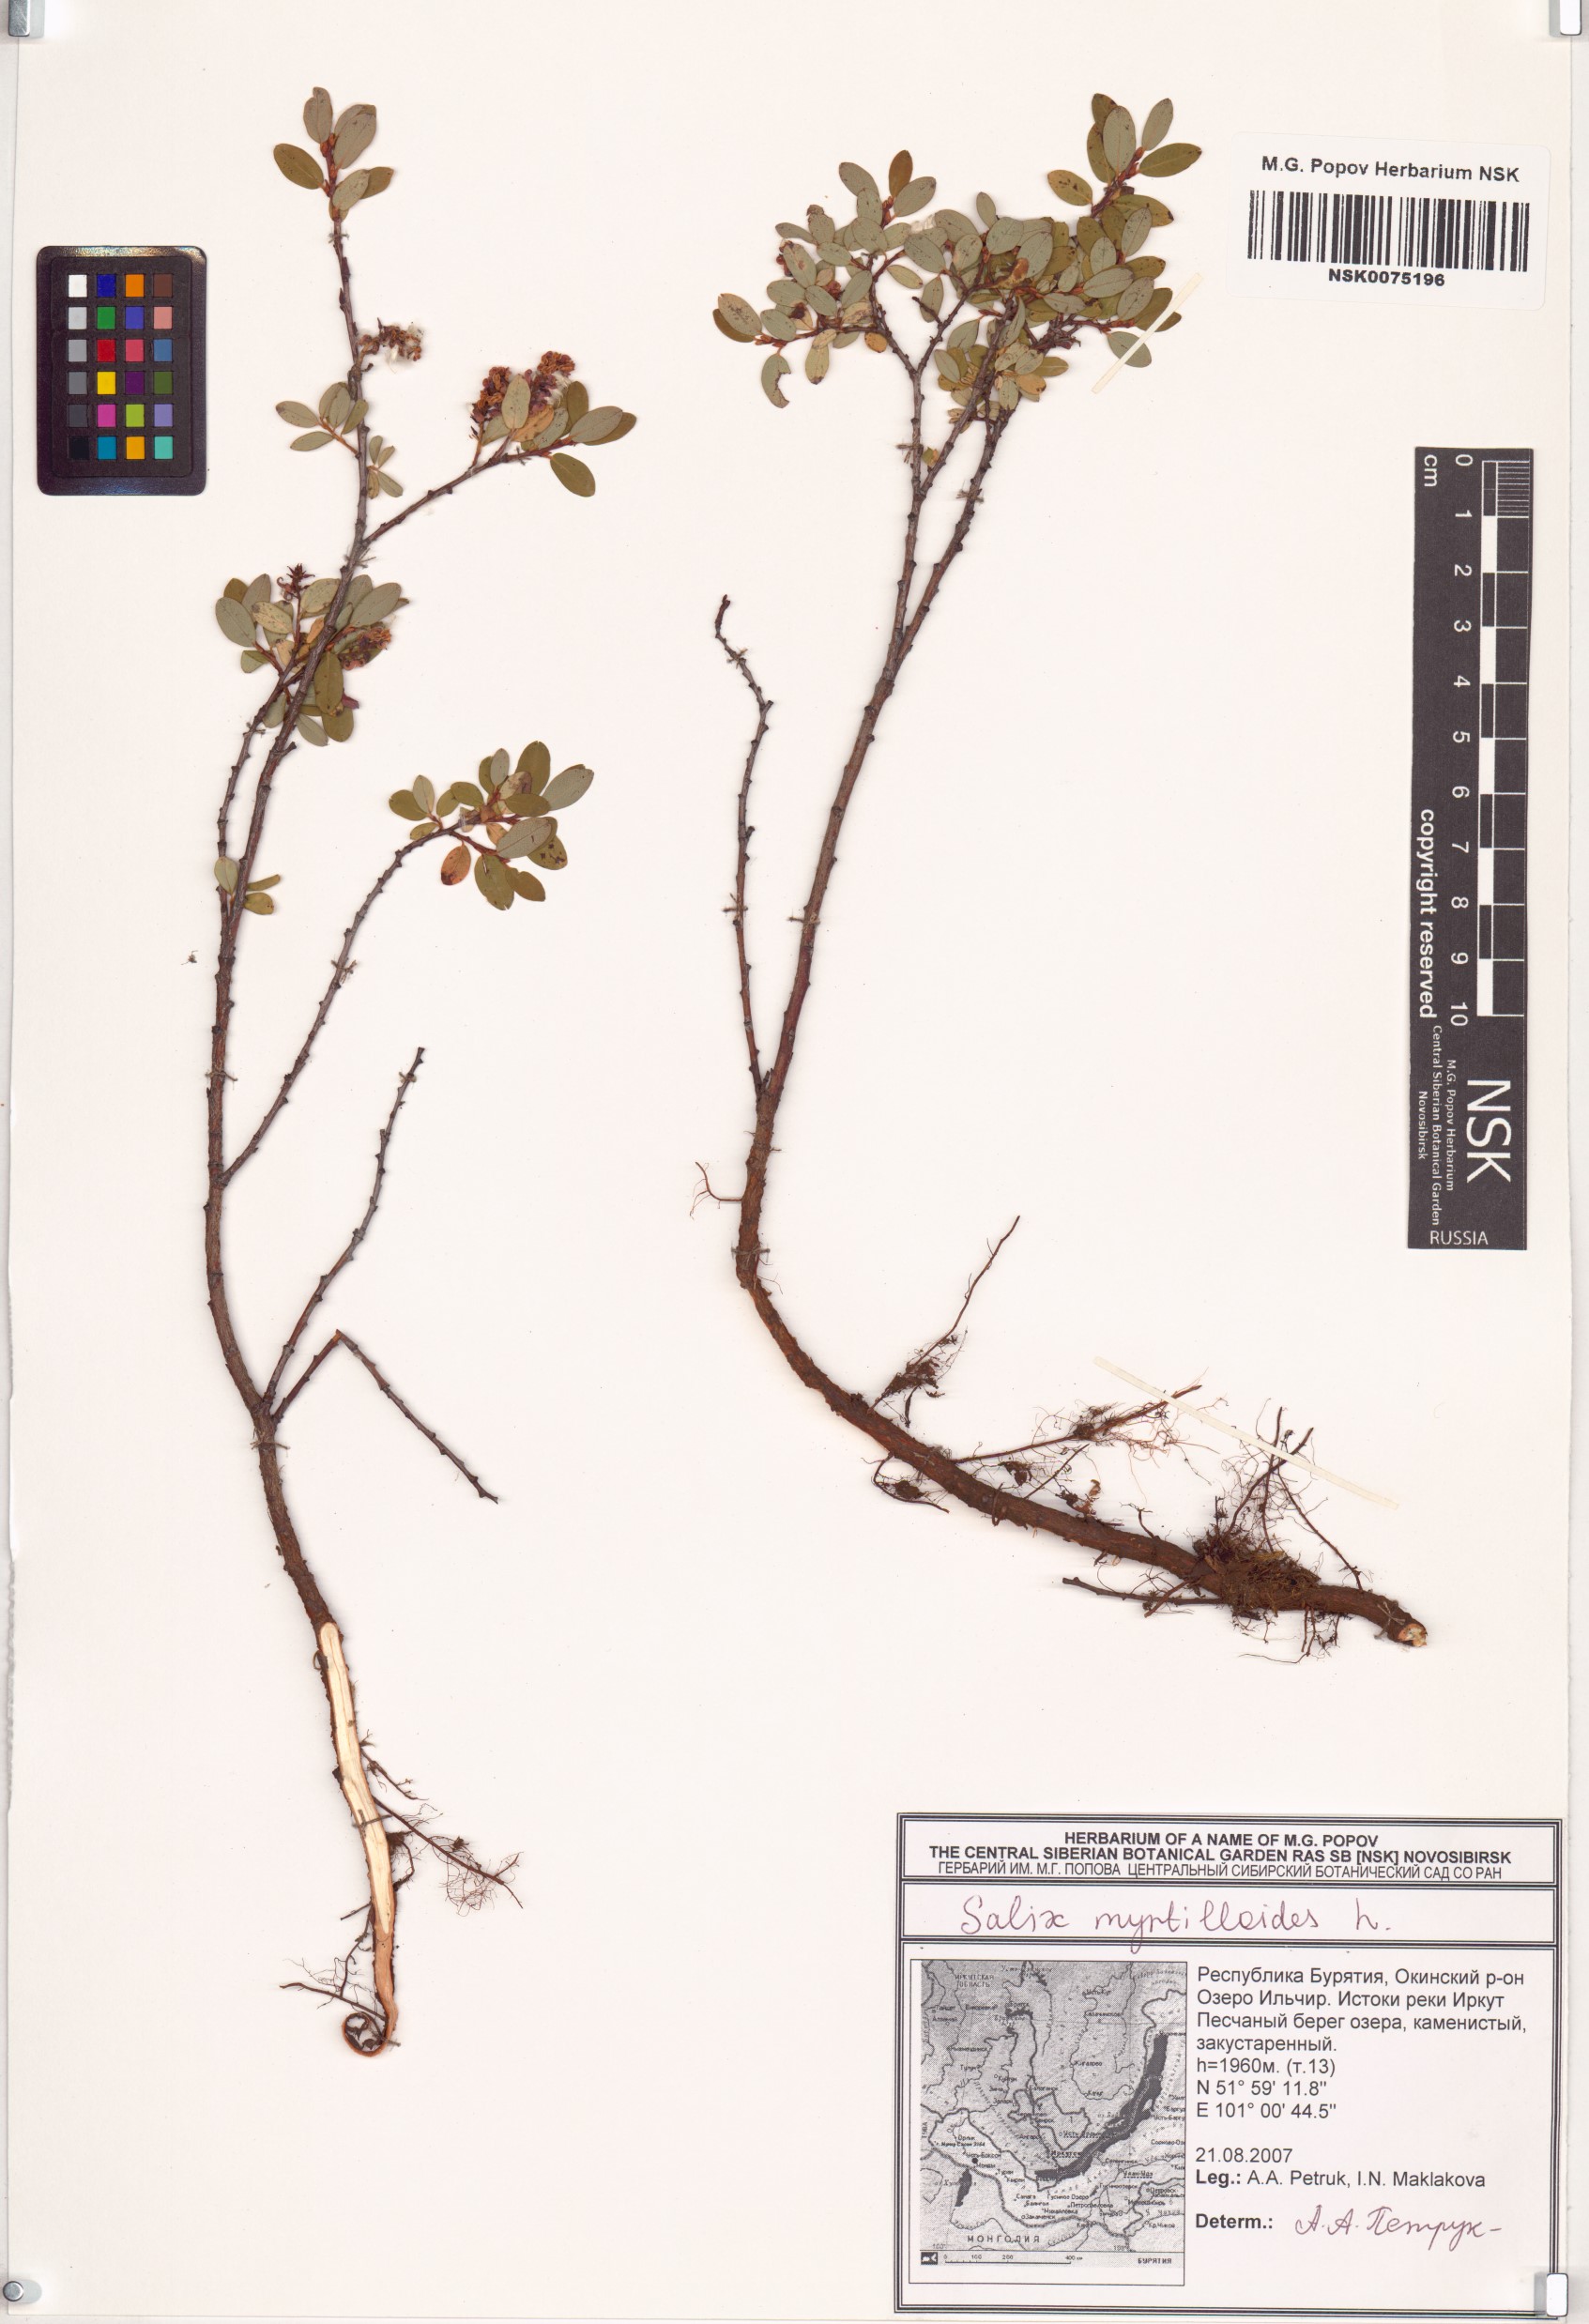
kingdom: Plantae
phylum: Tracheophyta
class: Magnoliopsida
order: Malpighiales
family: Salicaceae
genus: Salix
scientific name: Salix myrtilloides
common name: Myrtle-leaved willow
